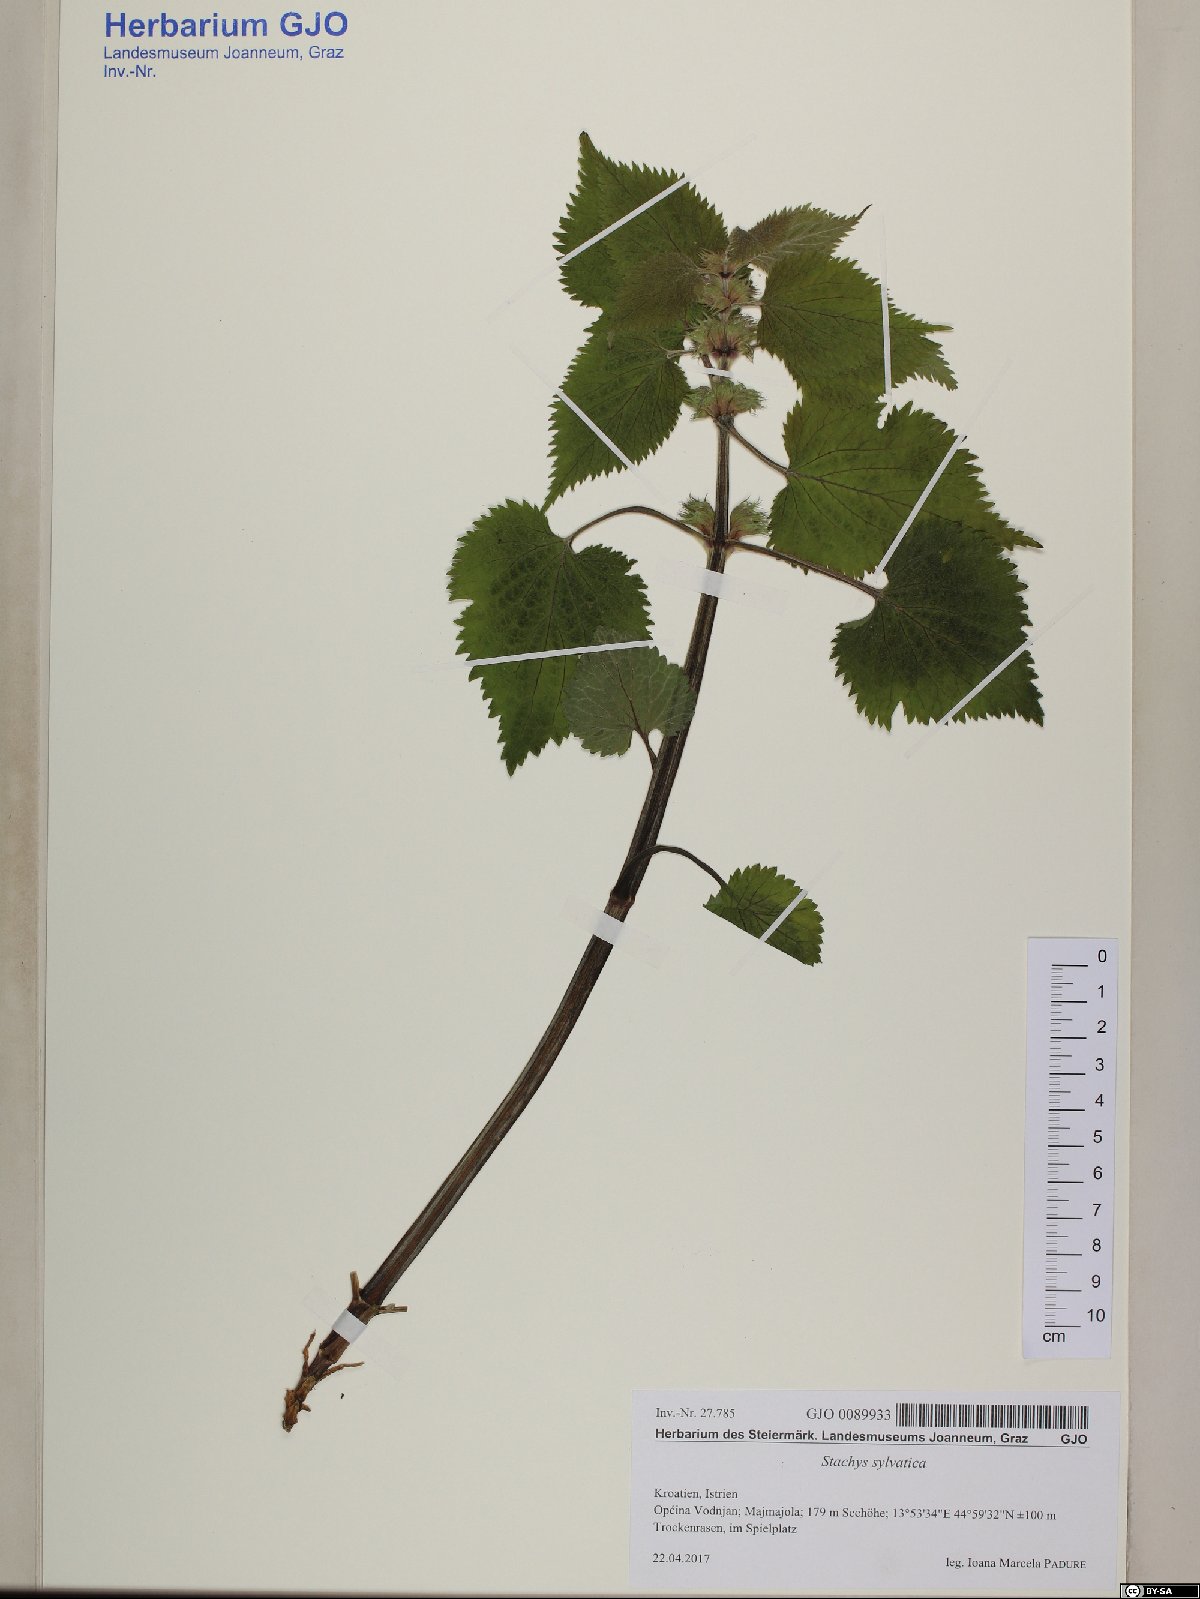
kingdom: Plantae
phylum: Tracheophyta
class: Magnoliopsida
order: Lamiales
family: Lamiaceae
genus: Lamium
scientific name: Lamium orvala
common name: Balm-leaved archangel
